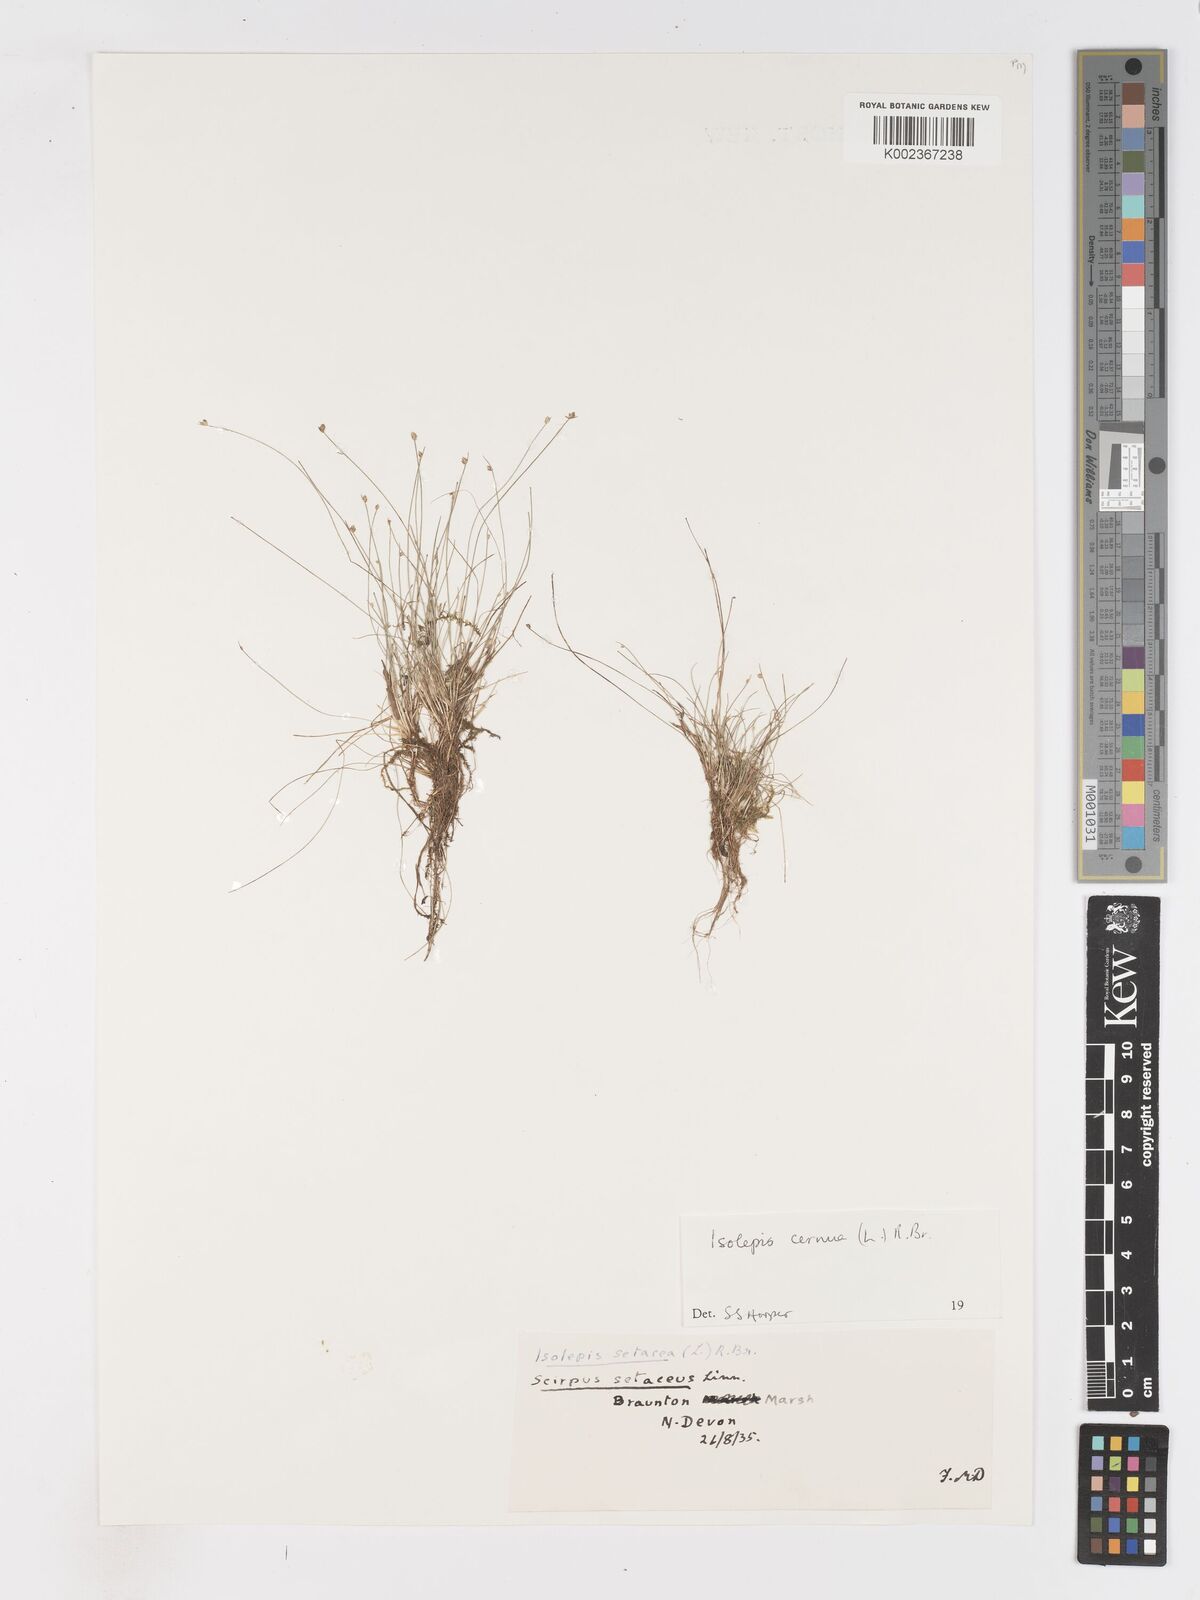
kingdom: Plantae
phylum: Tracheophyta
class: Liliopsida
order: Poales
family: Cyperaceae
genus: Isolepis
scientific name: Isolepis cernua
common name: Slender club-rush
